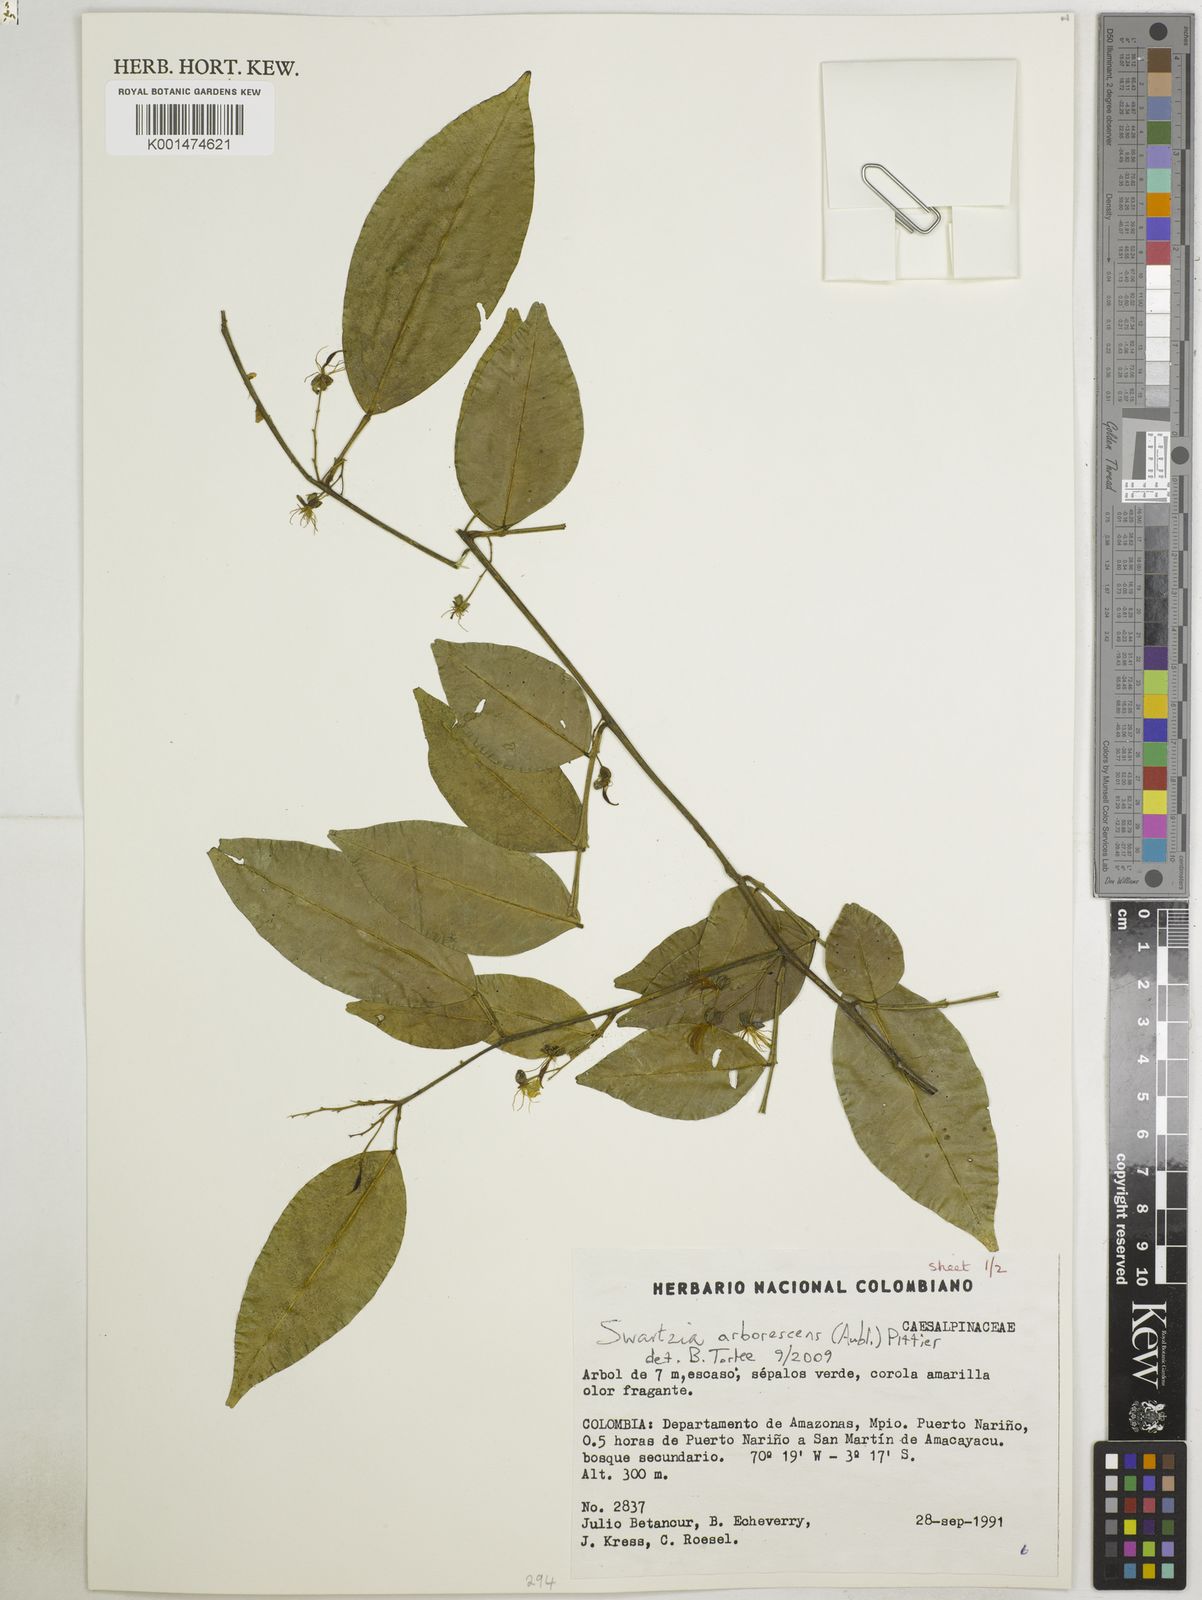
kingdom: Plantae
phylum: Tracheophyta
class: Magnoliopsida
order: Fabales
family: Fabaceae
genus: Swartzia
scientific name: Swartzia arborescens
